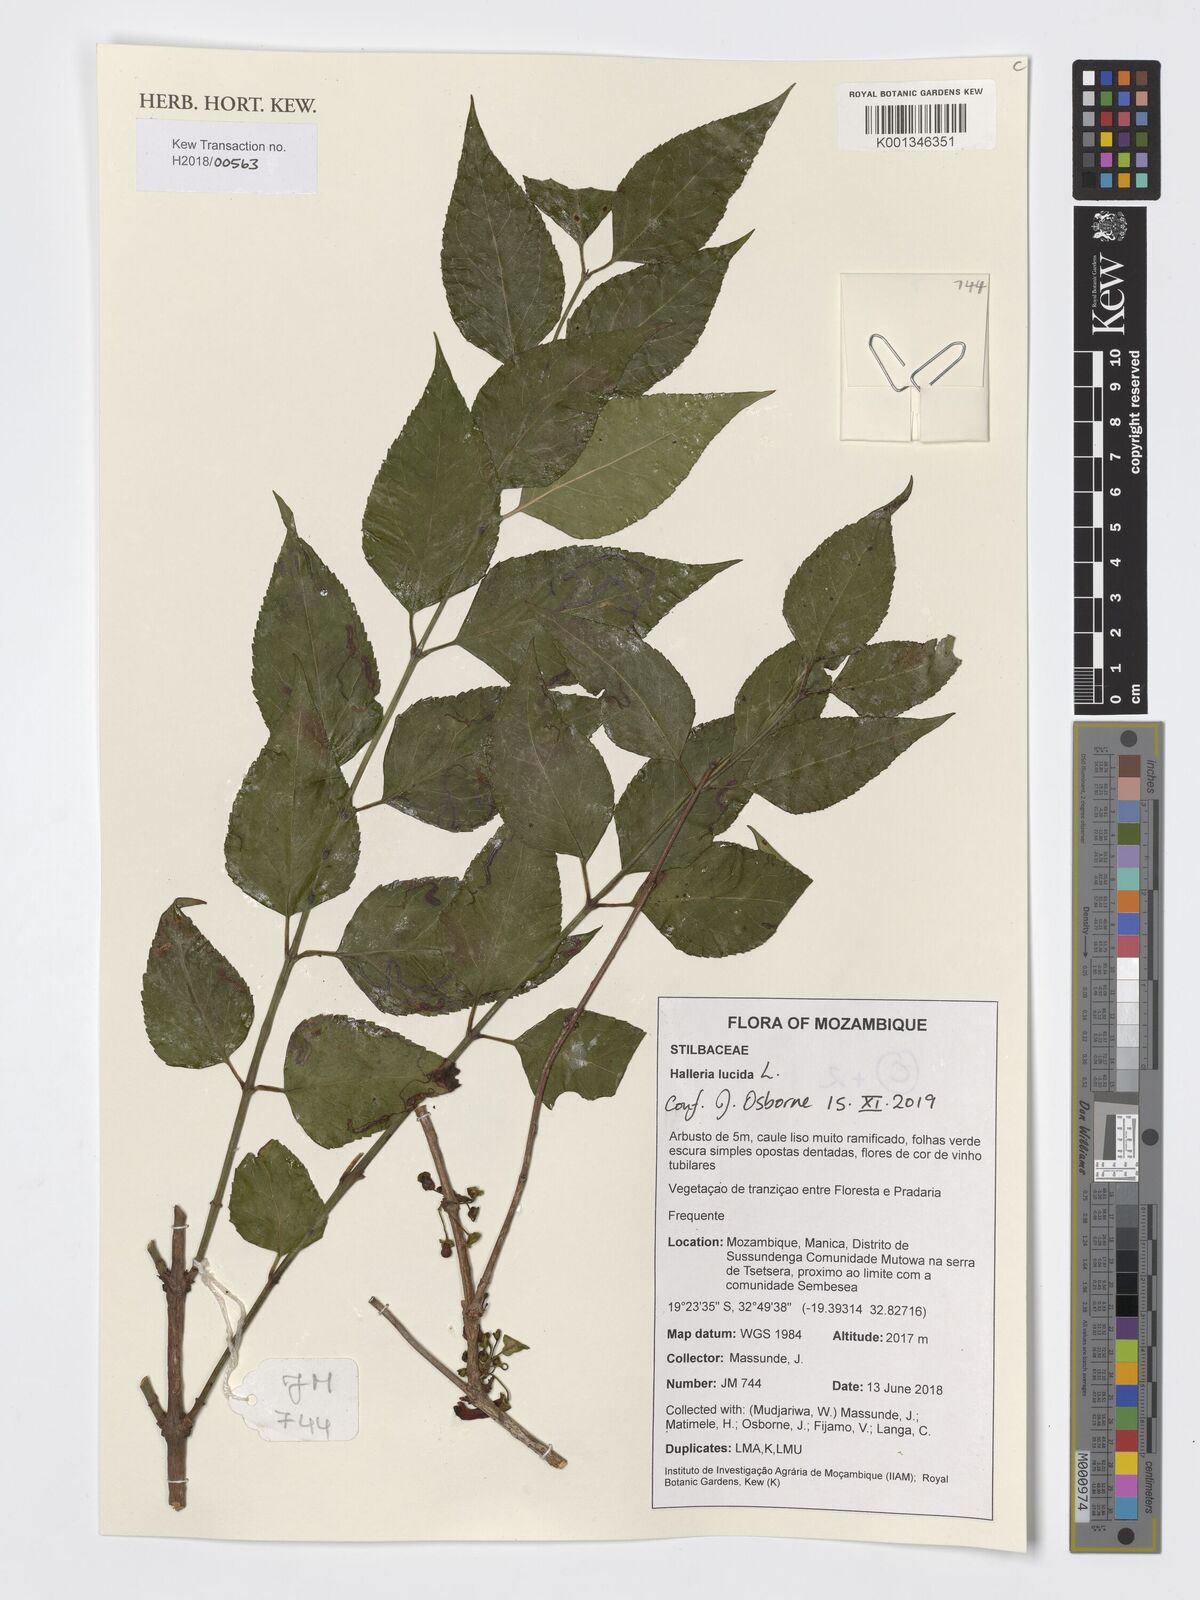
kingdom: Plantae
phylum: Tracheophyta
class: Magnoliopsida
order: Lamiales
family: Stilbaceae
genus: Halleria
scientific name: Halleria lucida
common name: Tree fuschia
